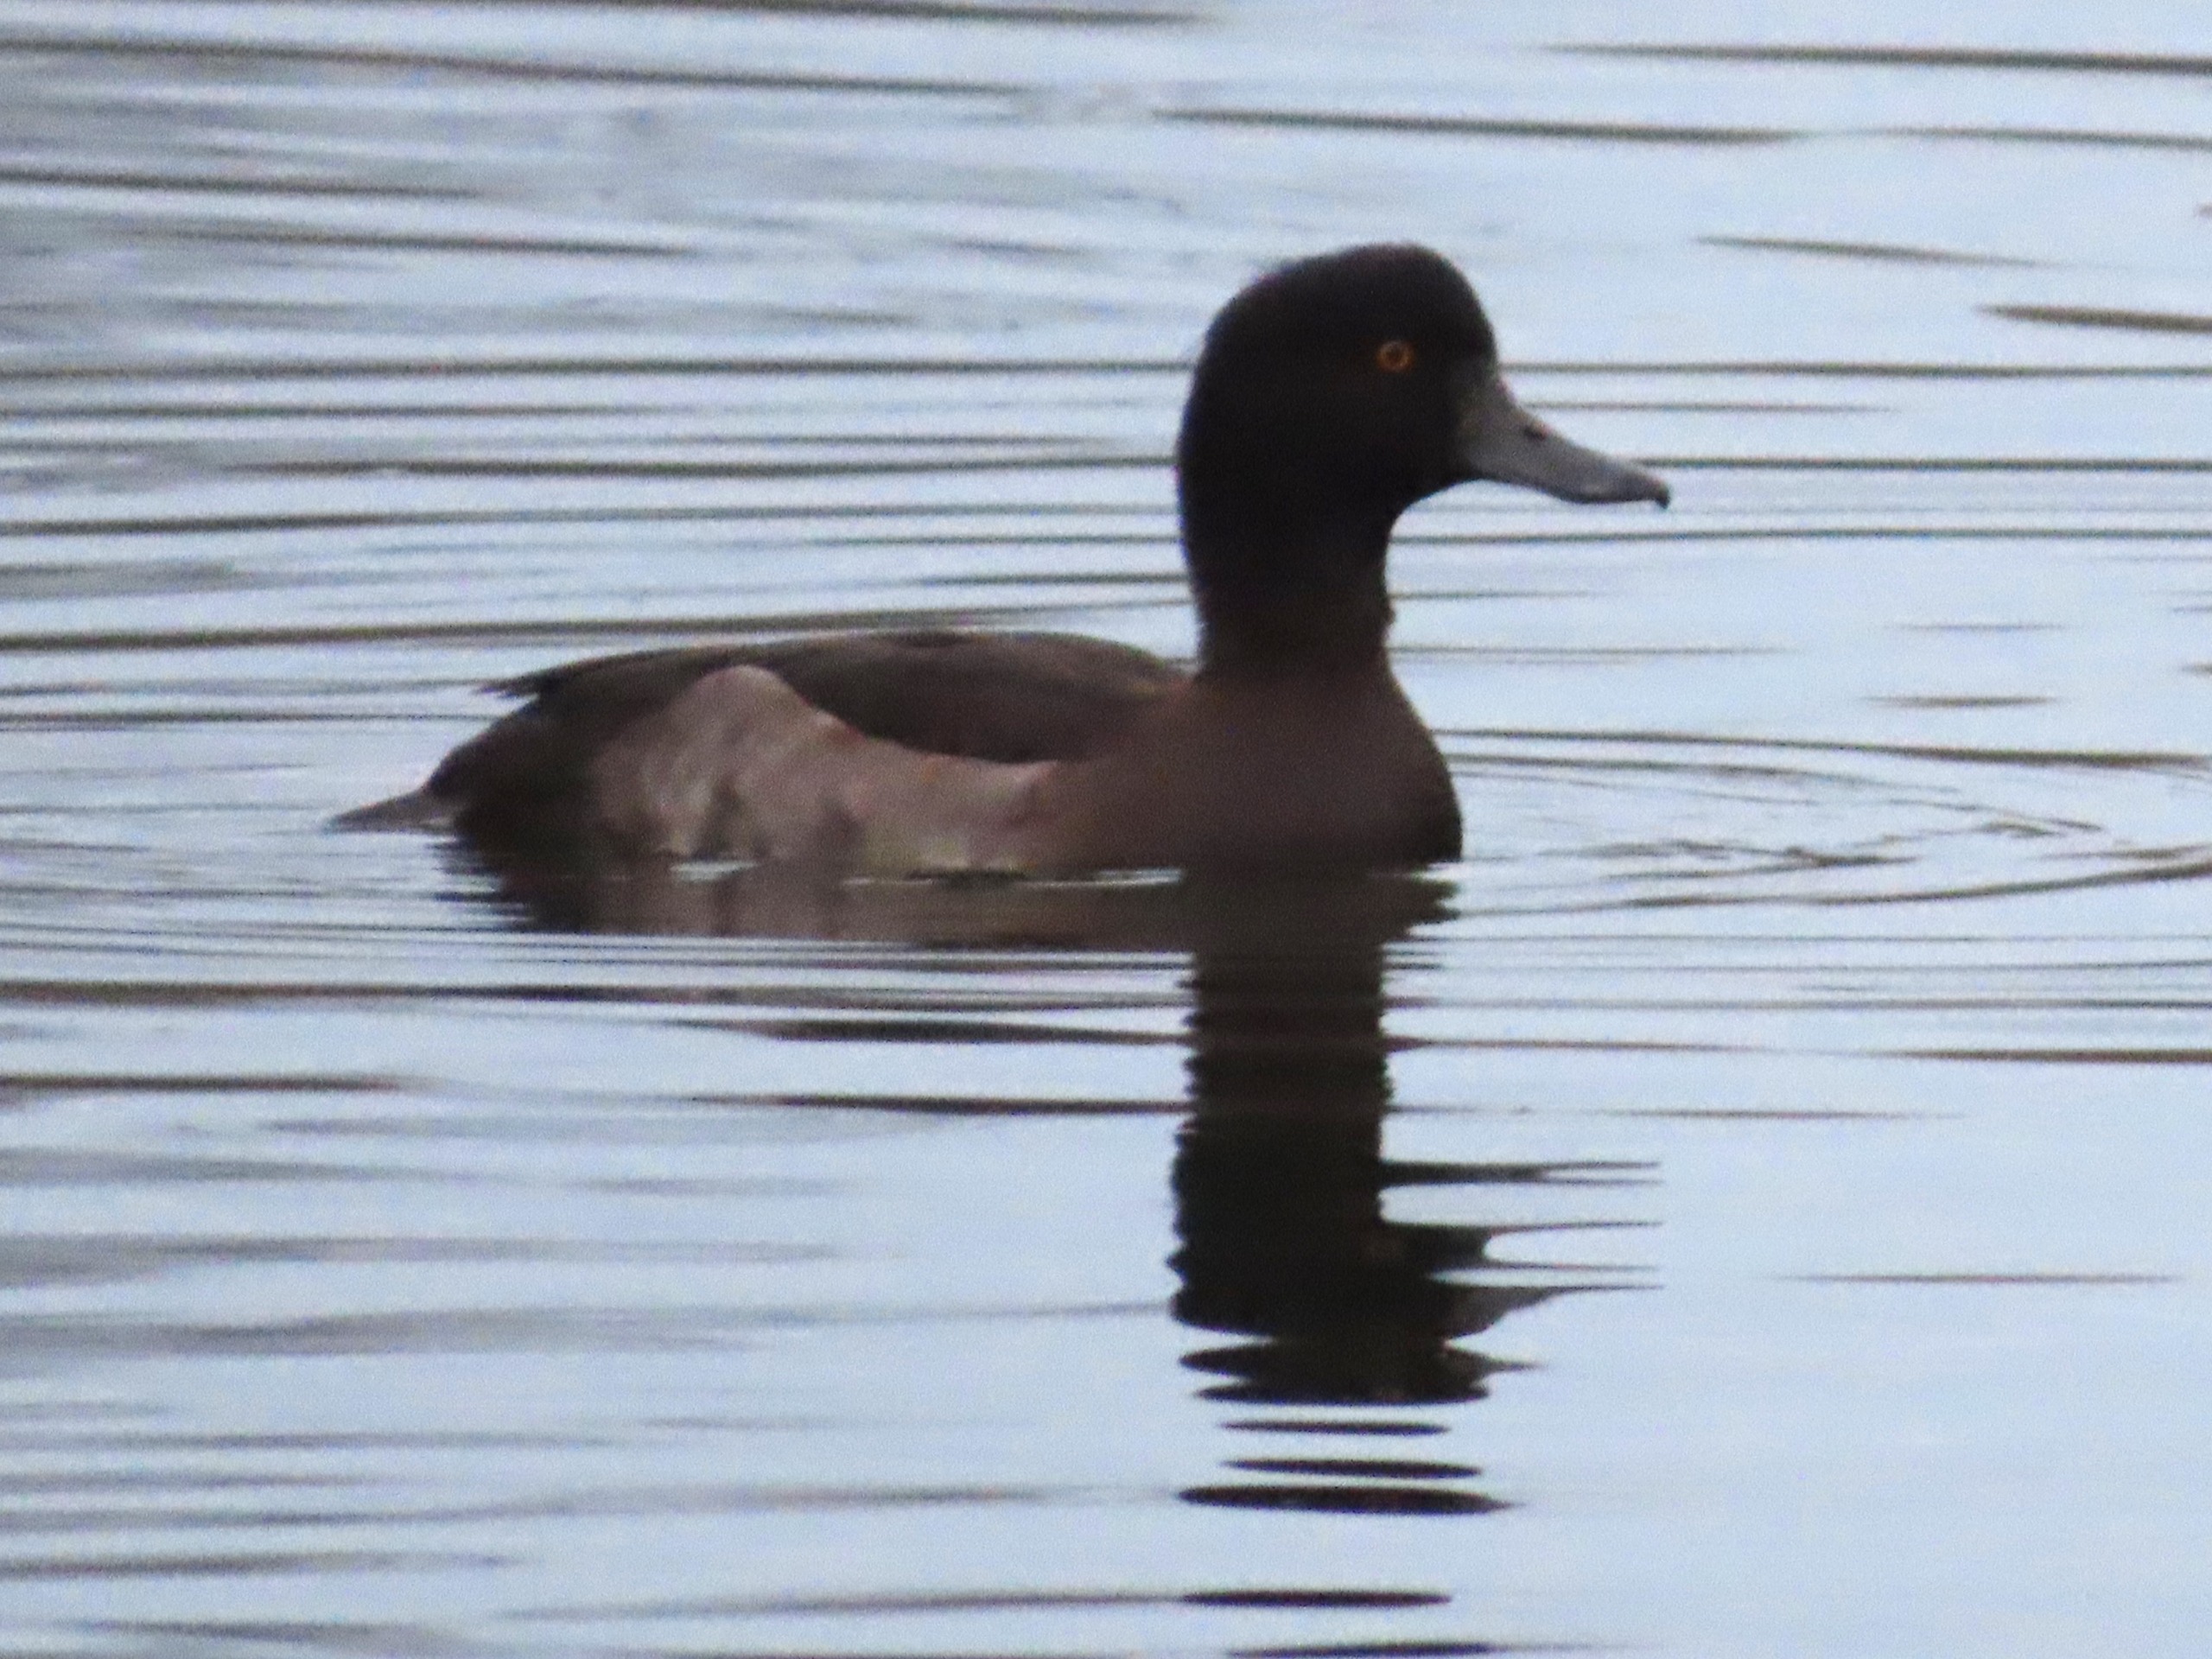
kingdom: Animalia
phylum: Chordata
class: Aves
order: Anseriformes
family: Anatidae
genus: Aythya
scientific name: Aythya fuligula
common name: Troldand
